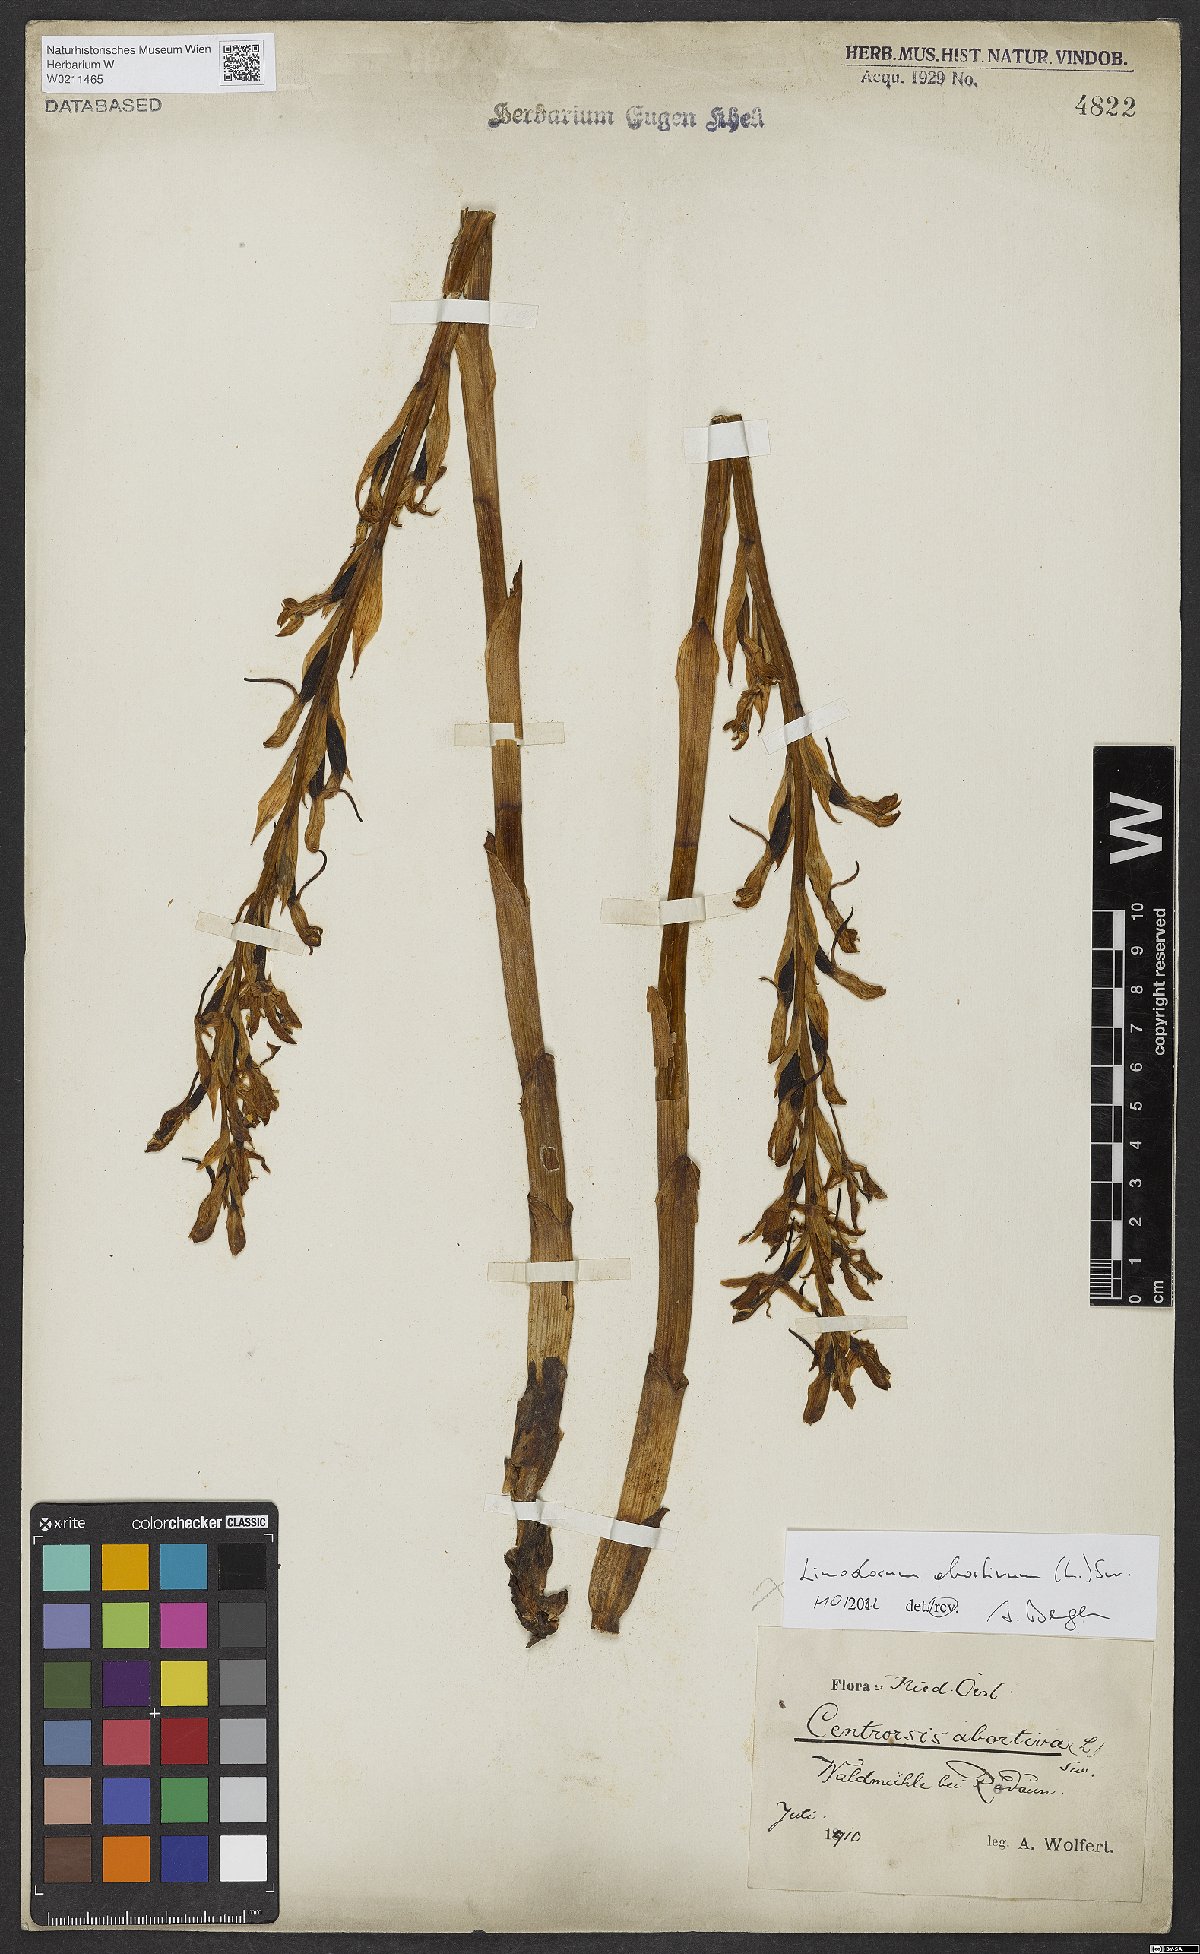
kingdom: Plantae
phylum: Tracheophyta
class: Liliopsida
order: Asparagales
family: Orchidaceae
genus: Limodorum
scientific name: Limodorum abortivum
